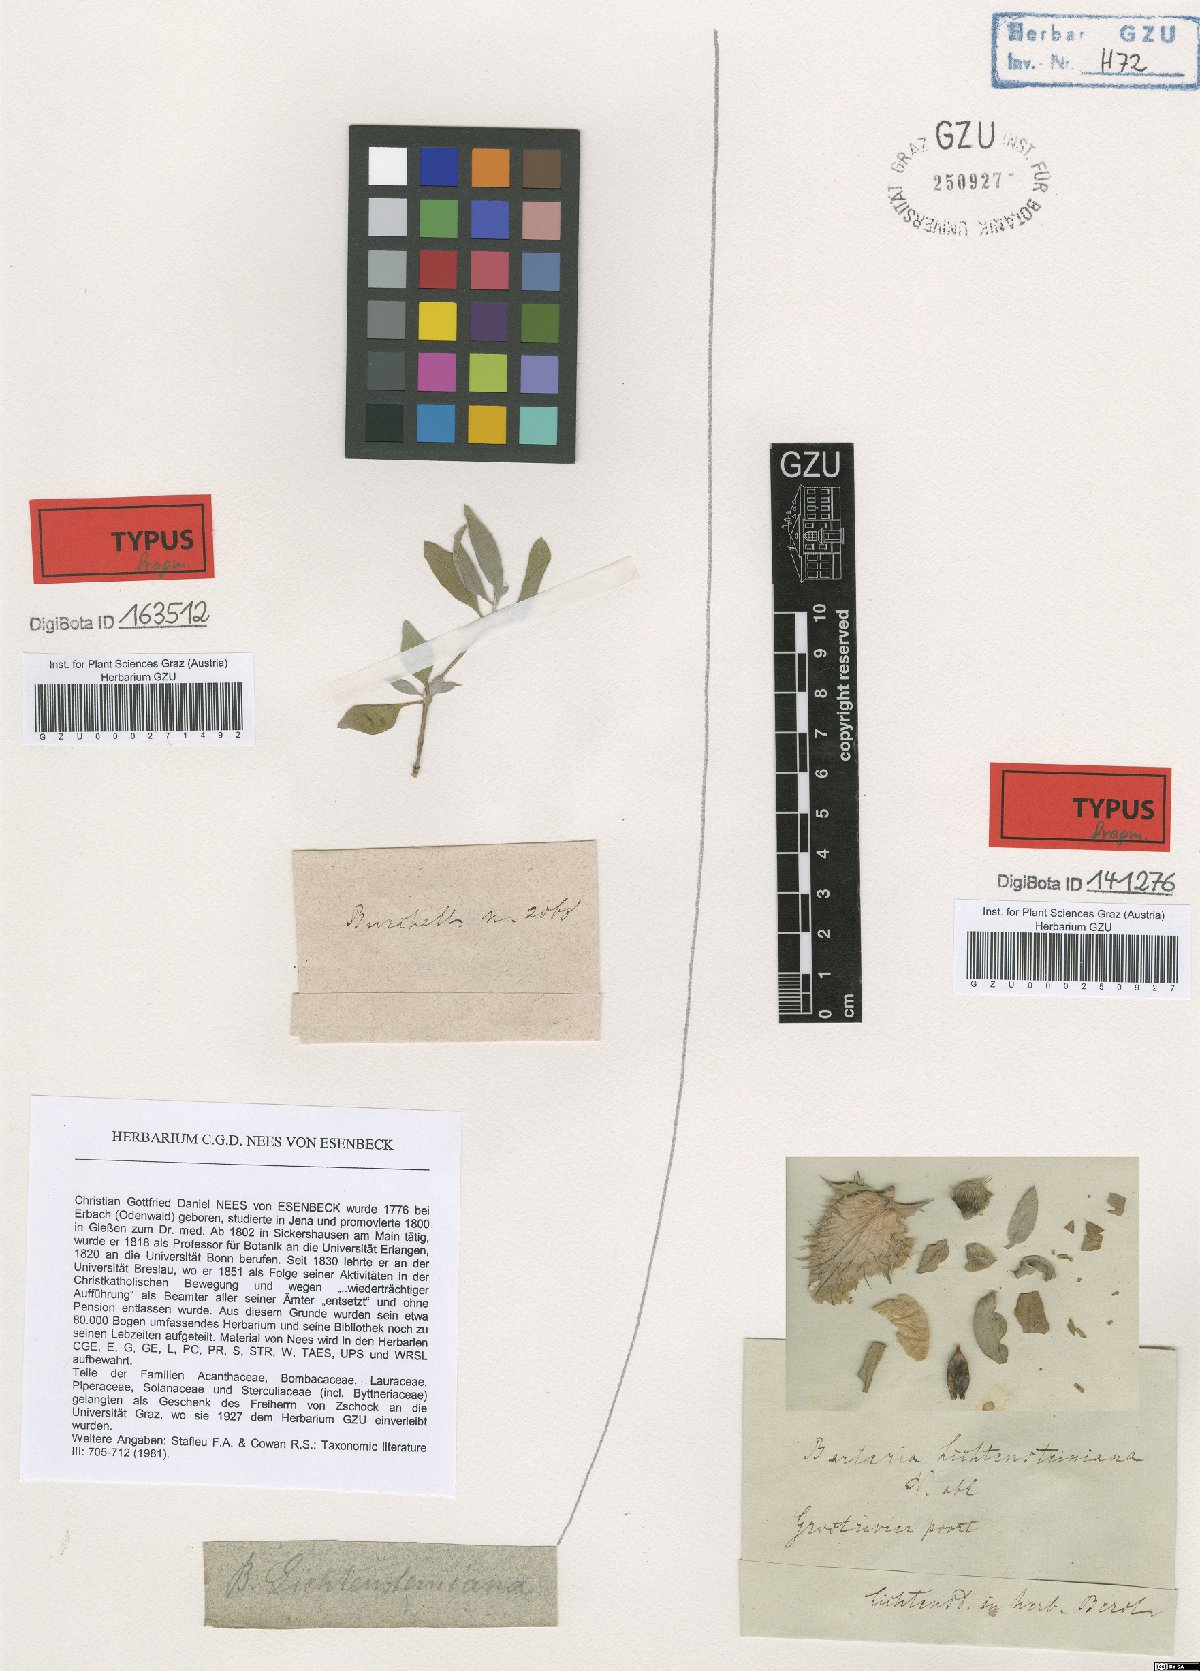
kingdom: Plantae
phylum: Tracheophyta
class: Magnoliopsida
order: Lamiales
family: Acanthaceae
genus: Barleria
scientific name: Barleria lichtensteiniana
